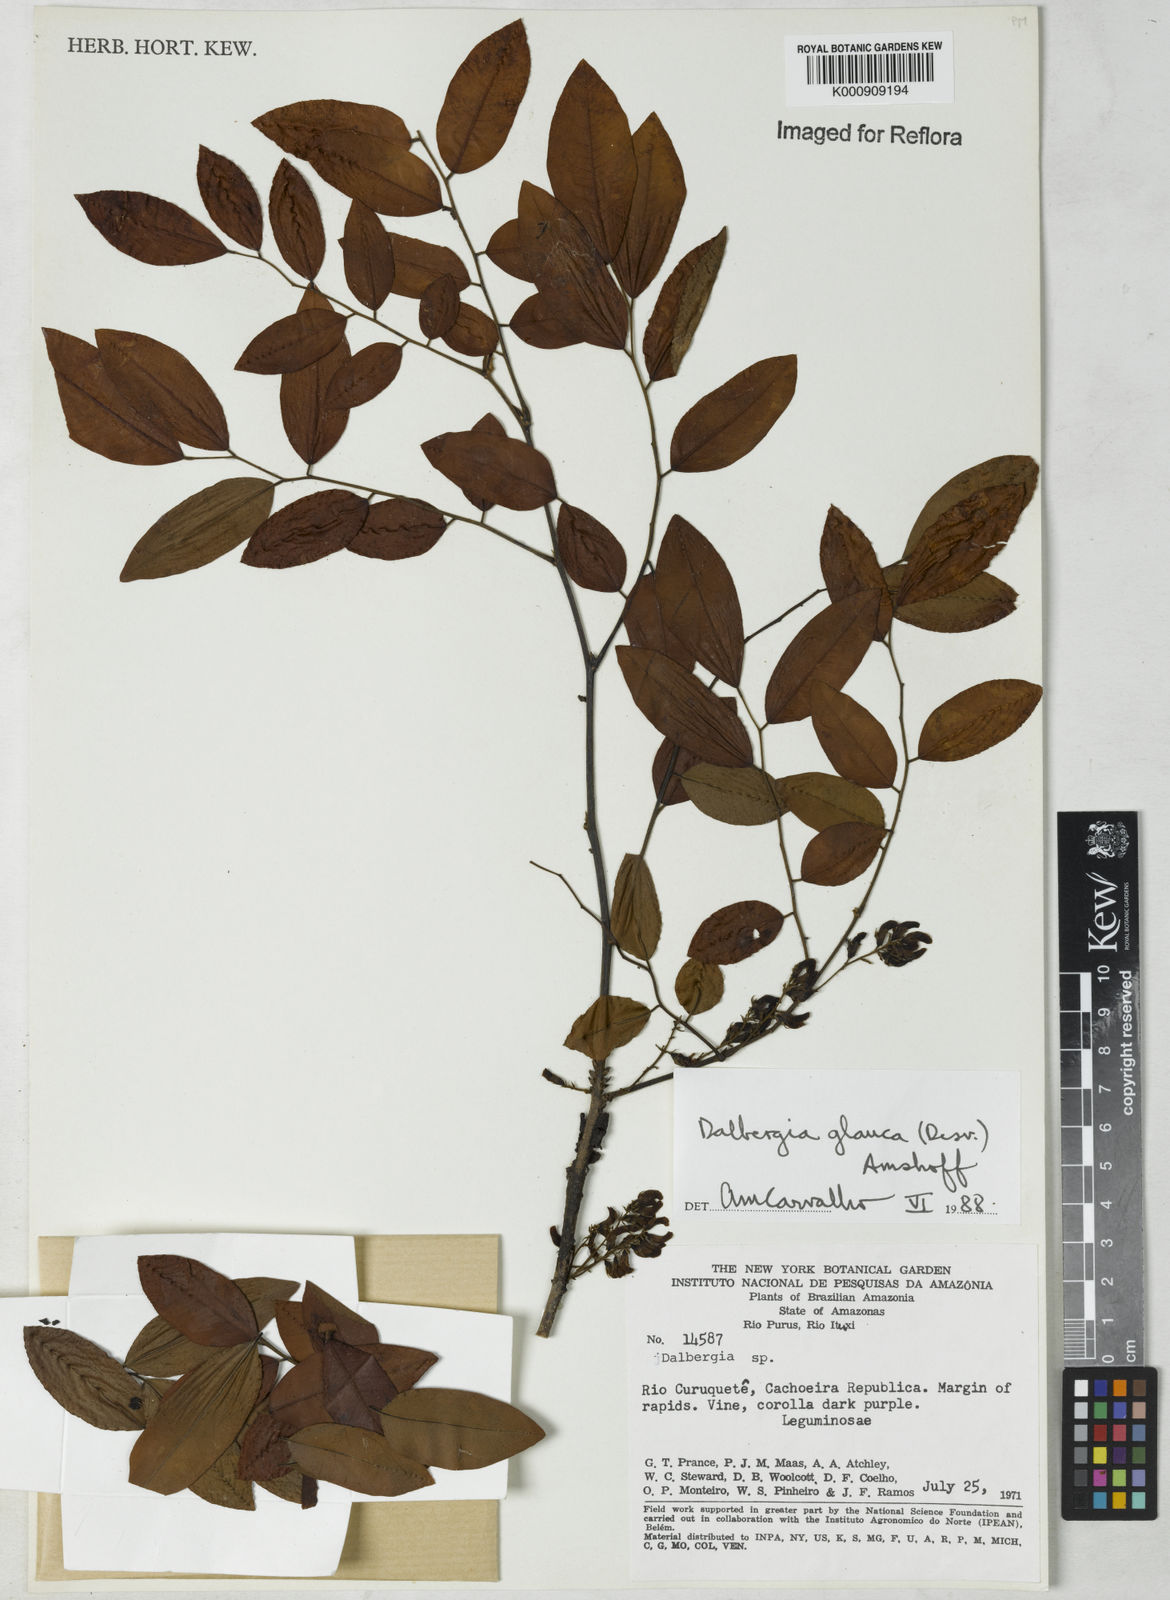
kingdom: Plantae
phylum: Tracheophyta
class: Magnoliopsida
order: Fabales
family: Fabaceae
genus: Dalbergia
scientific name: Dalbergia atropurpurea
